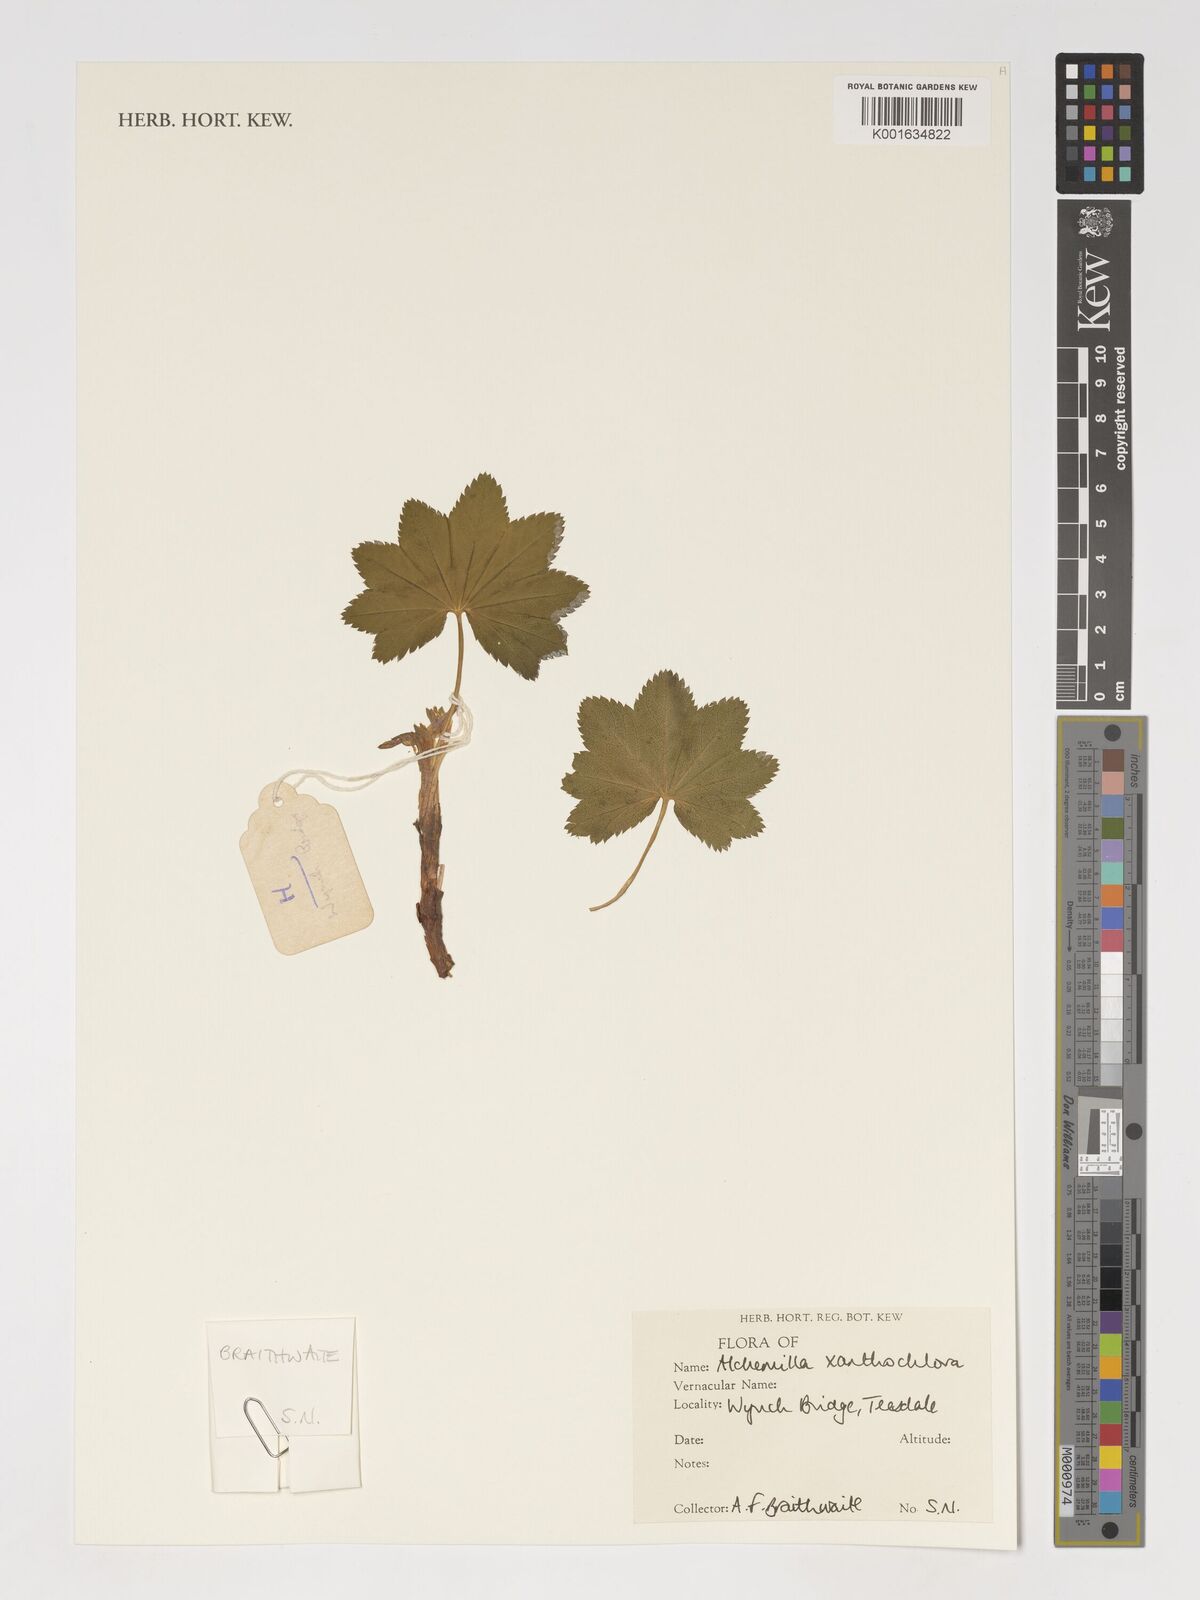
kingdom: Plantae
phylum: Tracheophyta
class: Magnoliopsida
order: Rosales
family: Rosaceae
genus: Alchemilla
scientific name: Alchemilla xanthochlora
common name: Intermediate lady's-mantle
